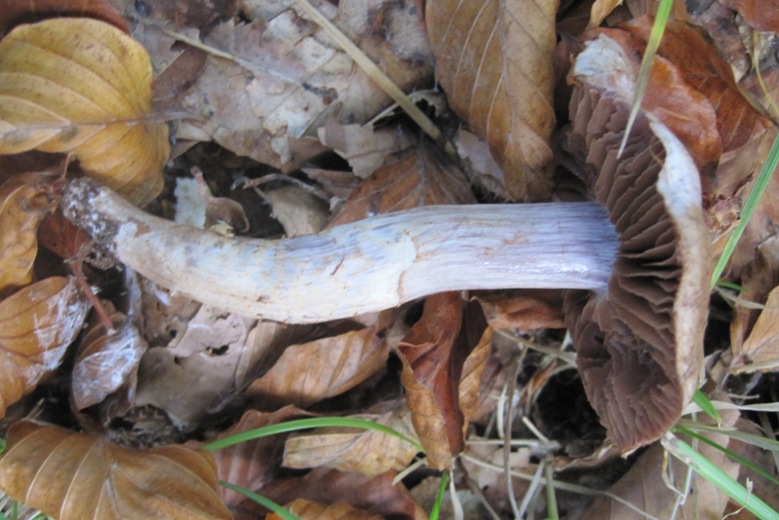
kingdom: Fungi
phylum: Basidiomycota
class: Agaricomycetes
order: Agaricales
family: Cortinariaceae
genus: Cortinarius
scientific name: Cortinarius torvus
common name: champignonagtig slørhat
